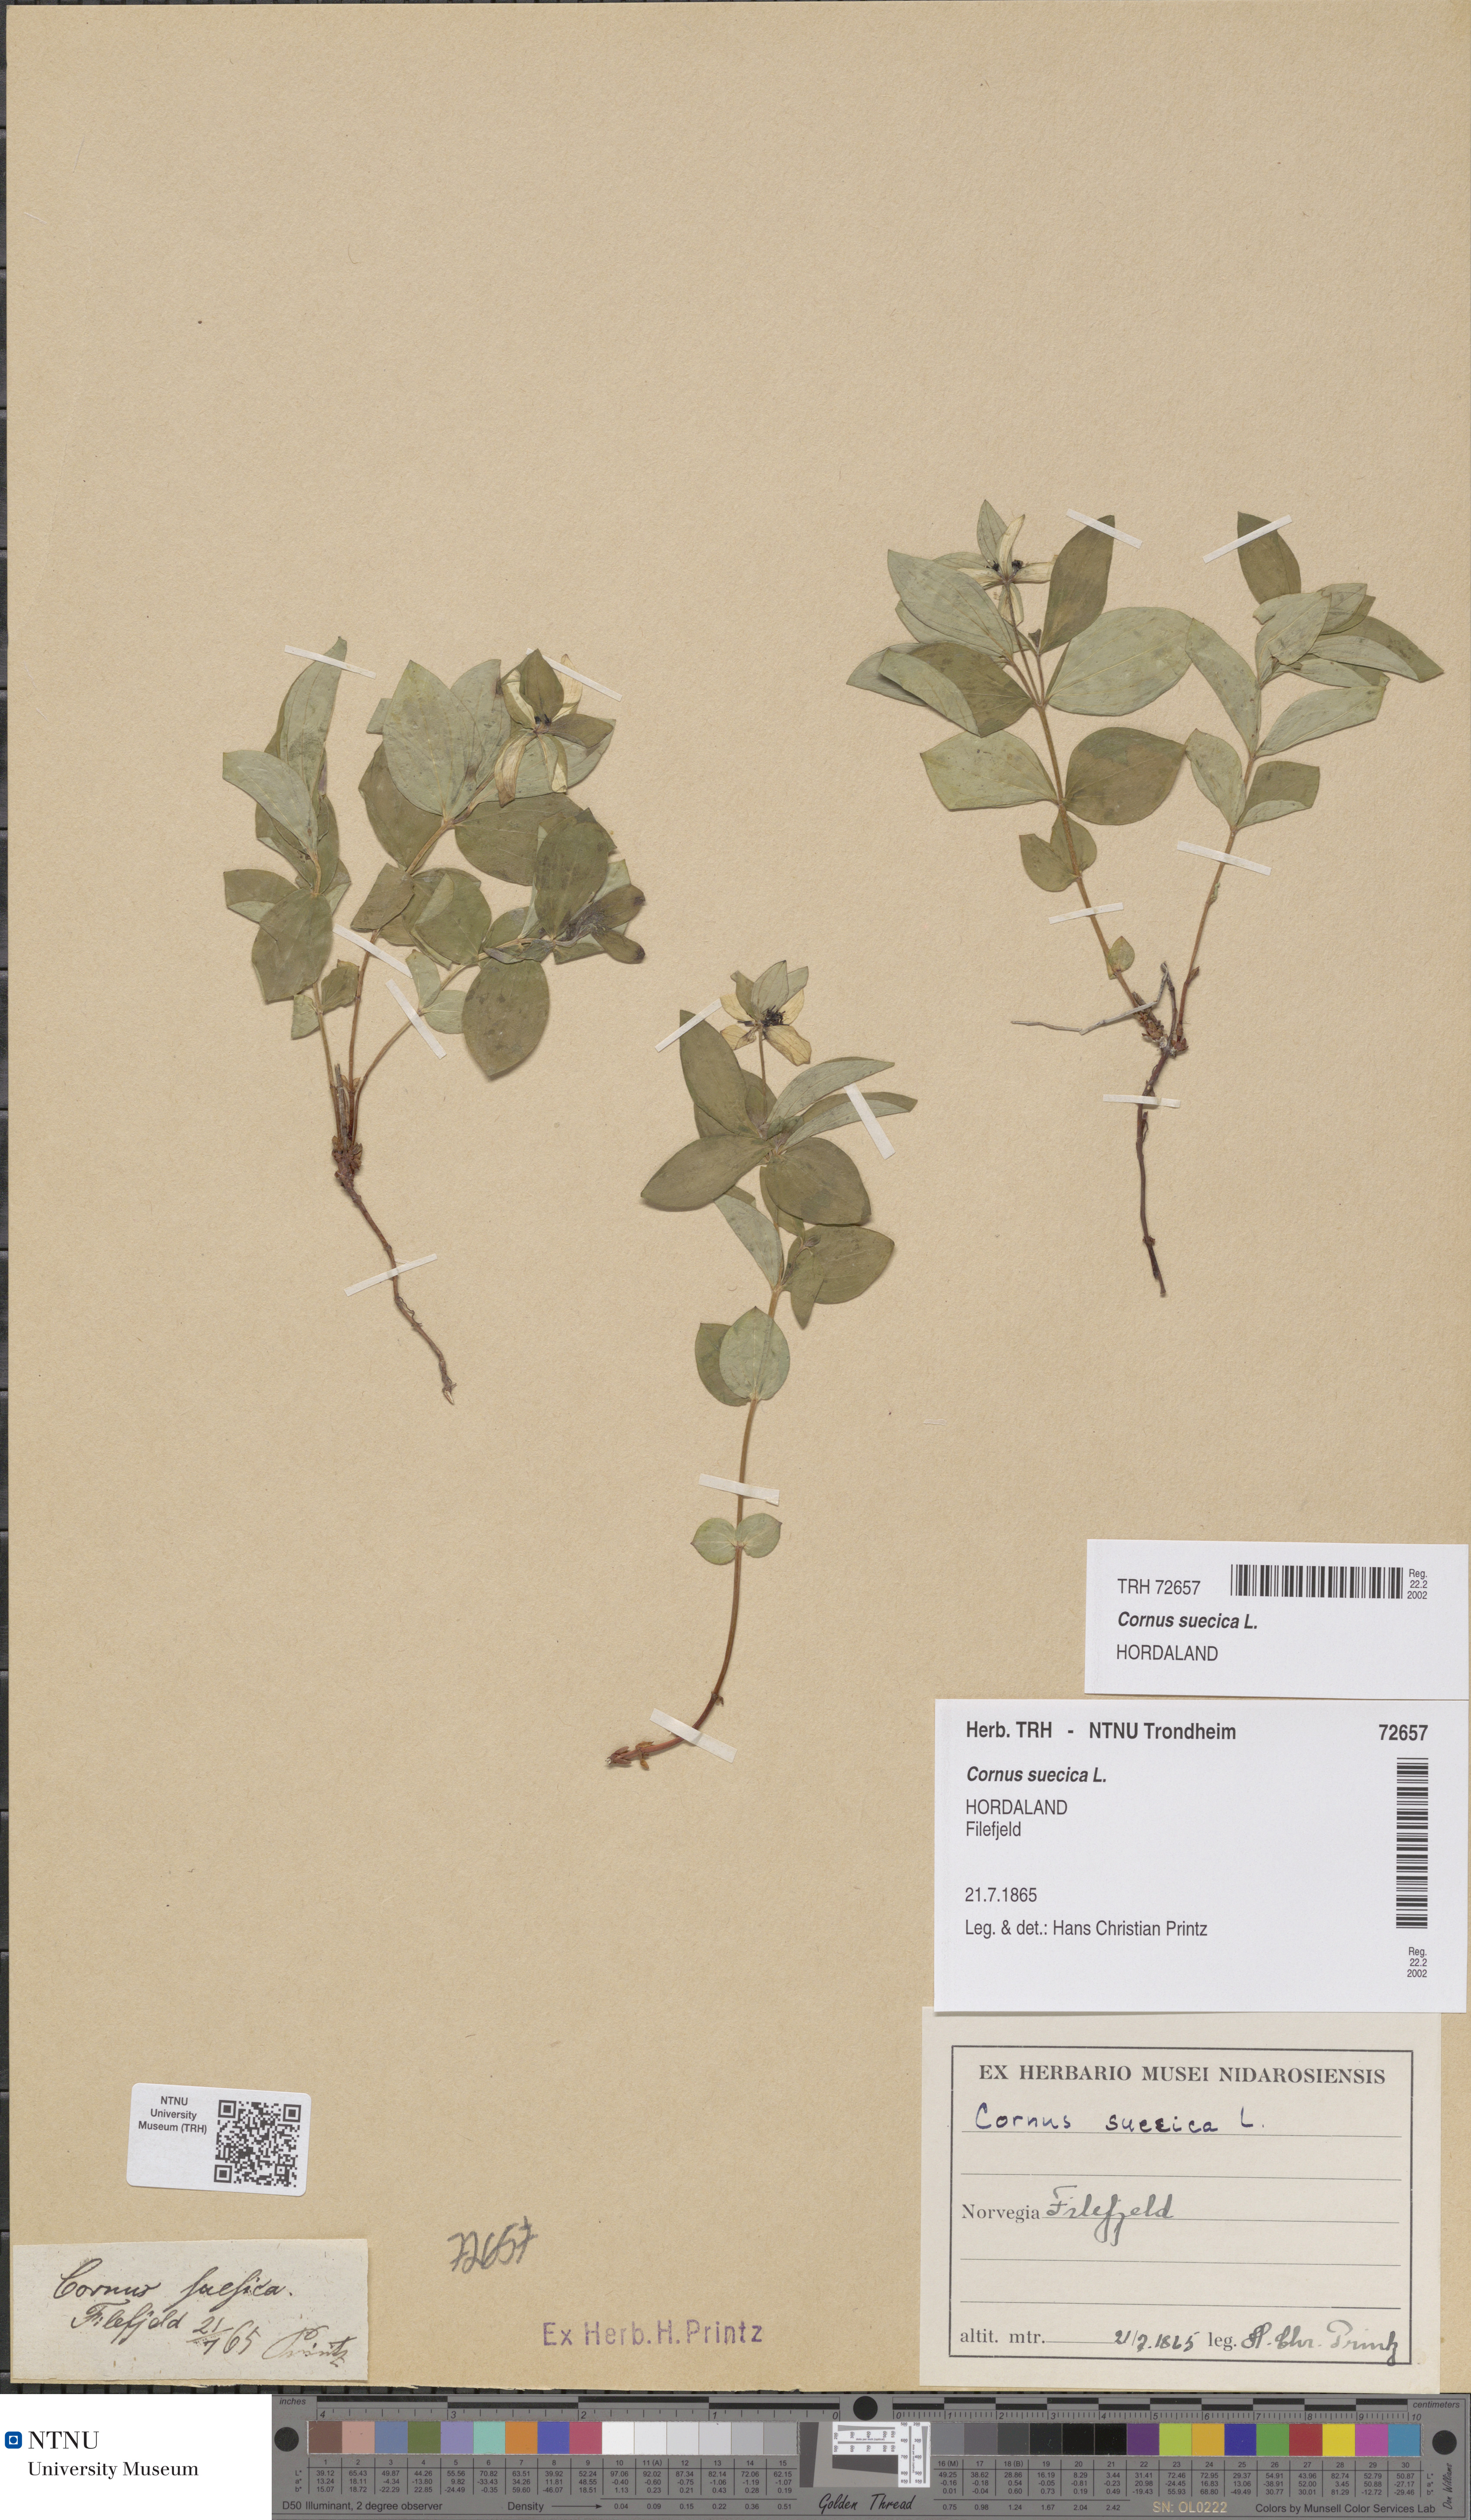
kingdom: Plantae
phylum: Tracheophyta
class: Magnoliopsida
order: Cornales
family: Cornaceae
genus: Cornus
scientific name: Cornus suecica
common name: Dwarf cornel
